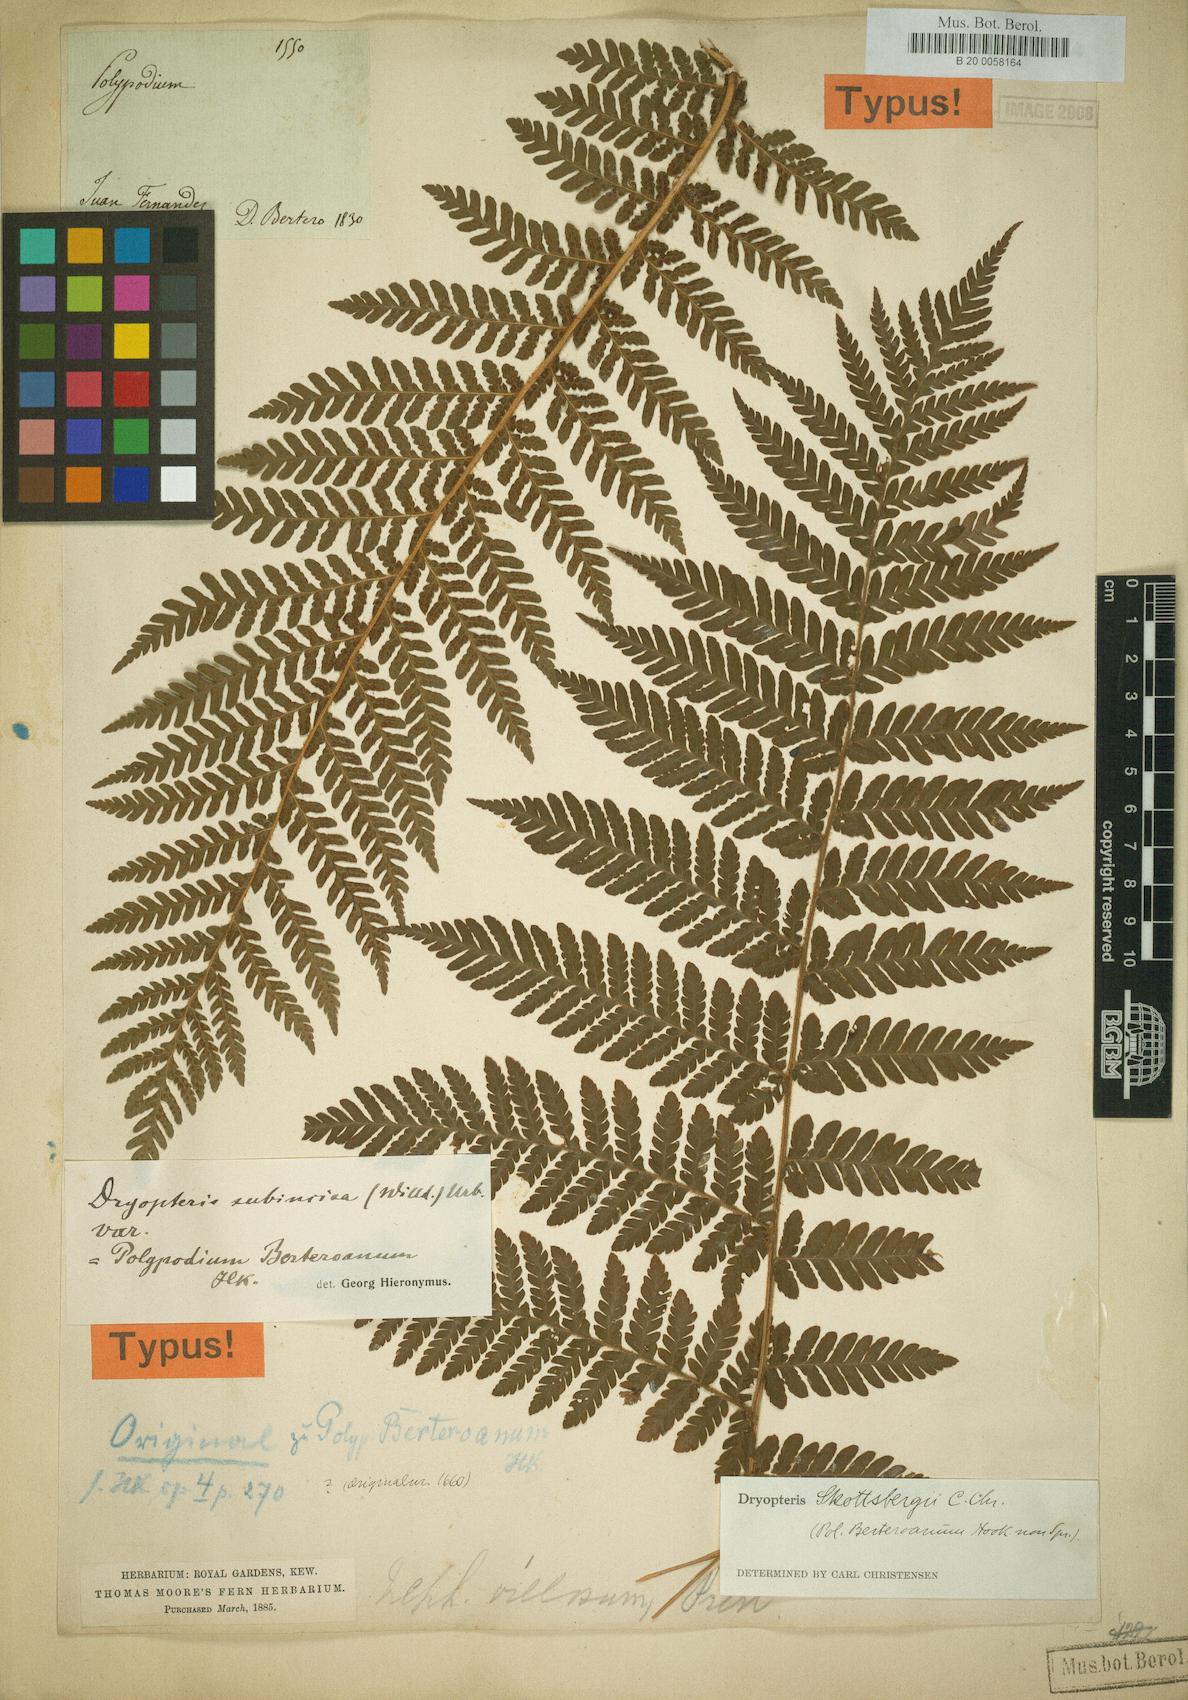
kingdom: Plantae
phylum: Tracheophyta
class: Polypodiopsida
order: Polypodiales
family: Dryopteridaceae
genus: Megalastrum
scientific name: Megalastrum inaequalifolium
